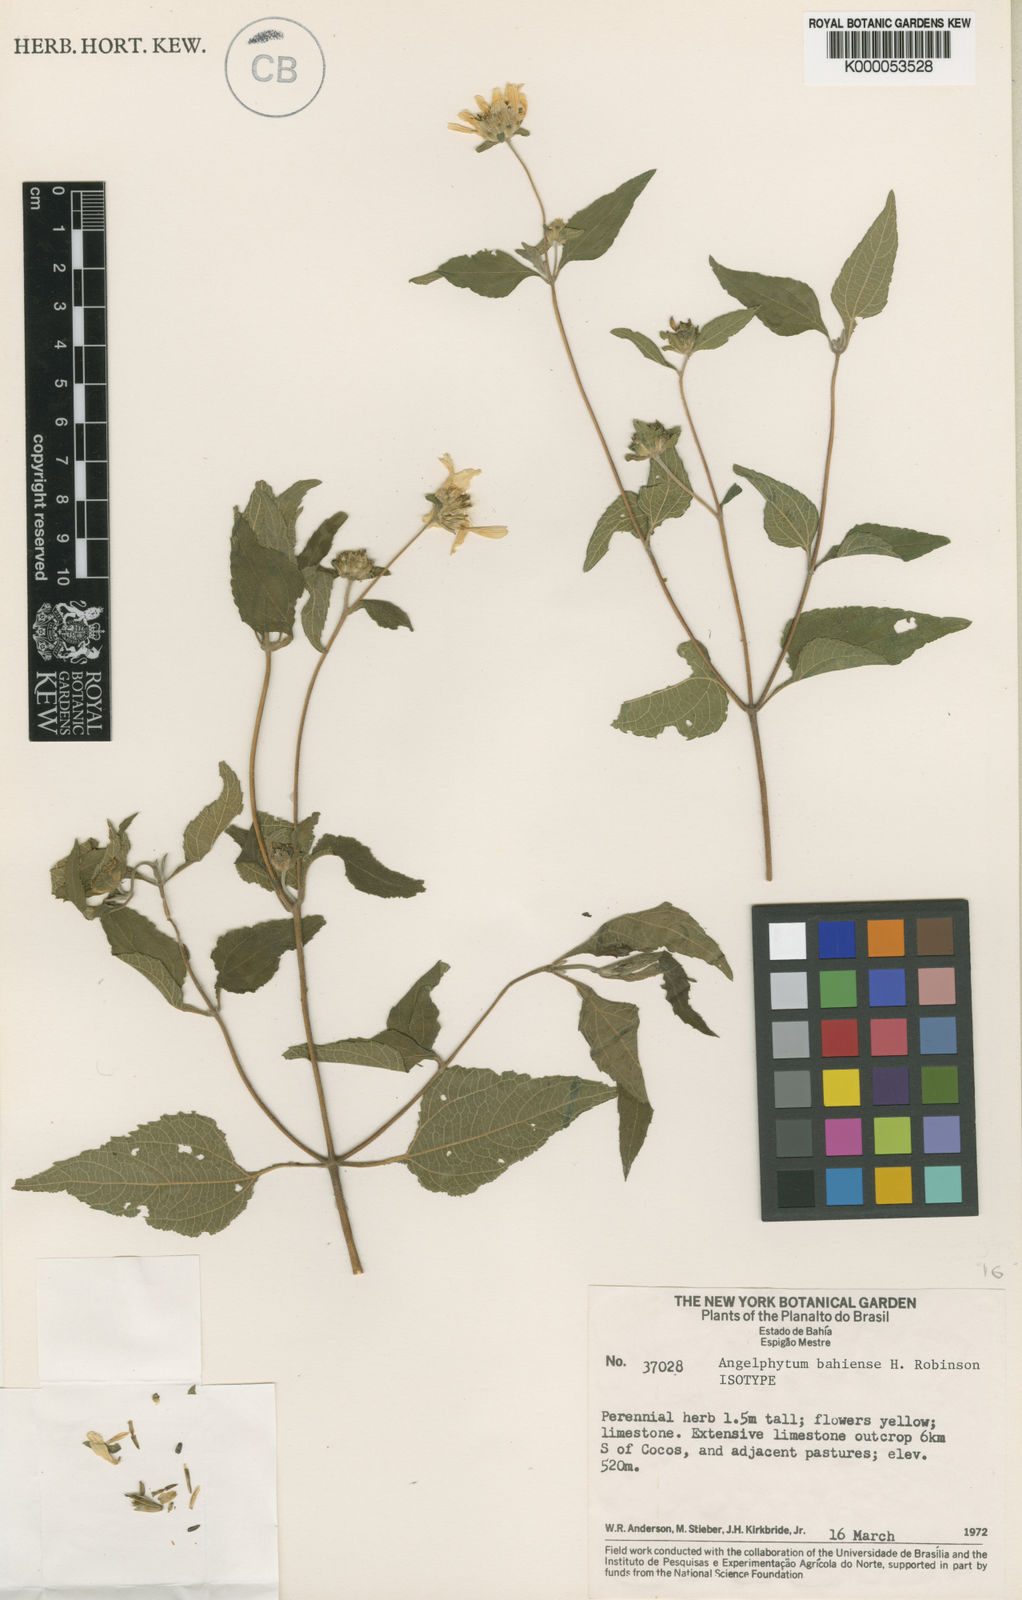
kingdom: Plantae
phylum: Tracheophyta
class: Magnoliopsida
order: Asterales
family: Asteraceae
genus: Dimerostemma
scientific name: Dimerostemma bahiense
